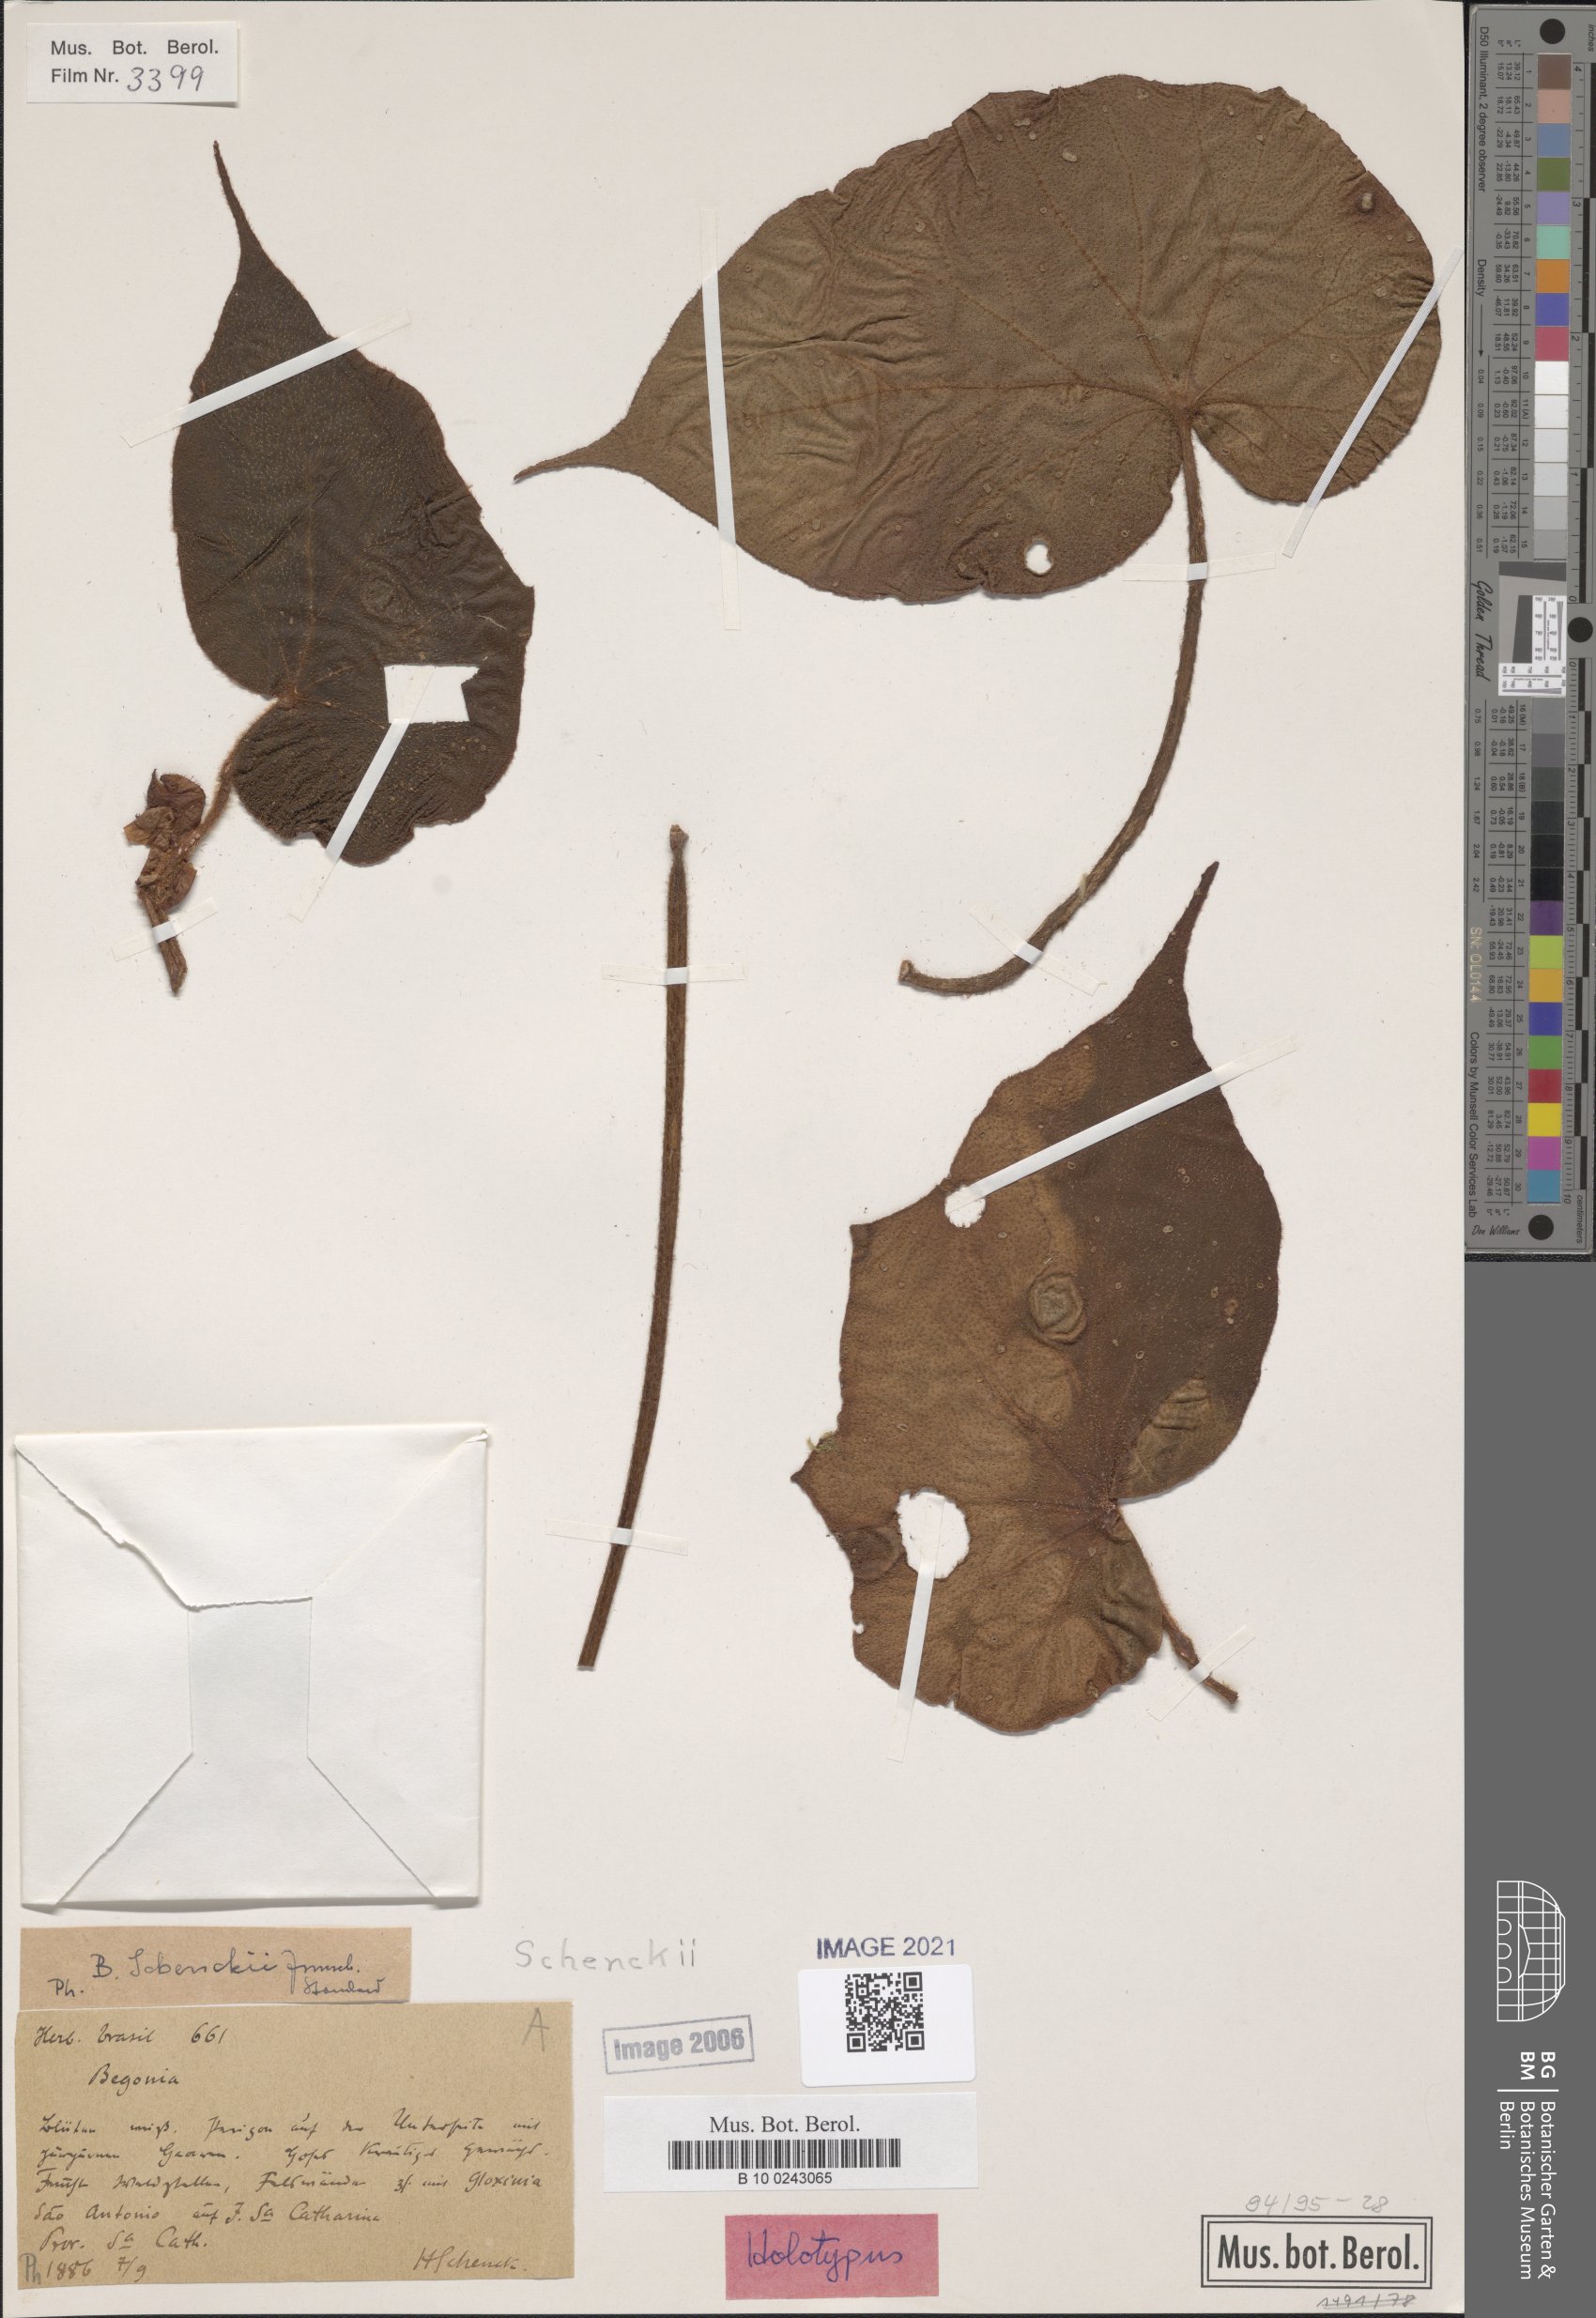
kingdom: Plantae
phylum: Tracheophyta
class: Magnoliopsida
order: Cucurbitales
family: Begoniaceae
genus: Begonia
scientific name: Begonia schenkii
